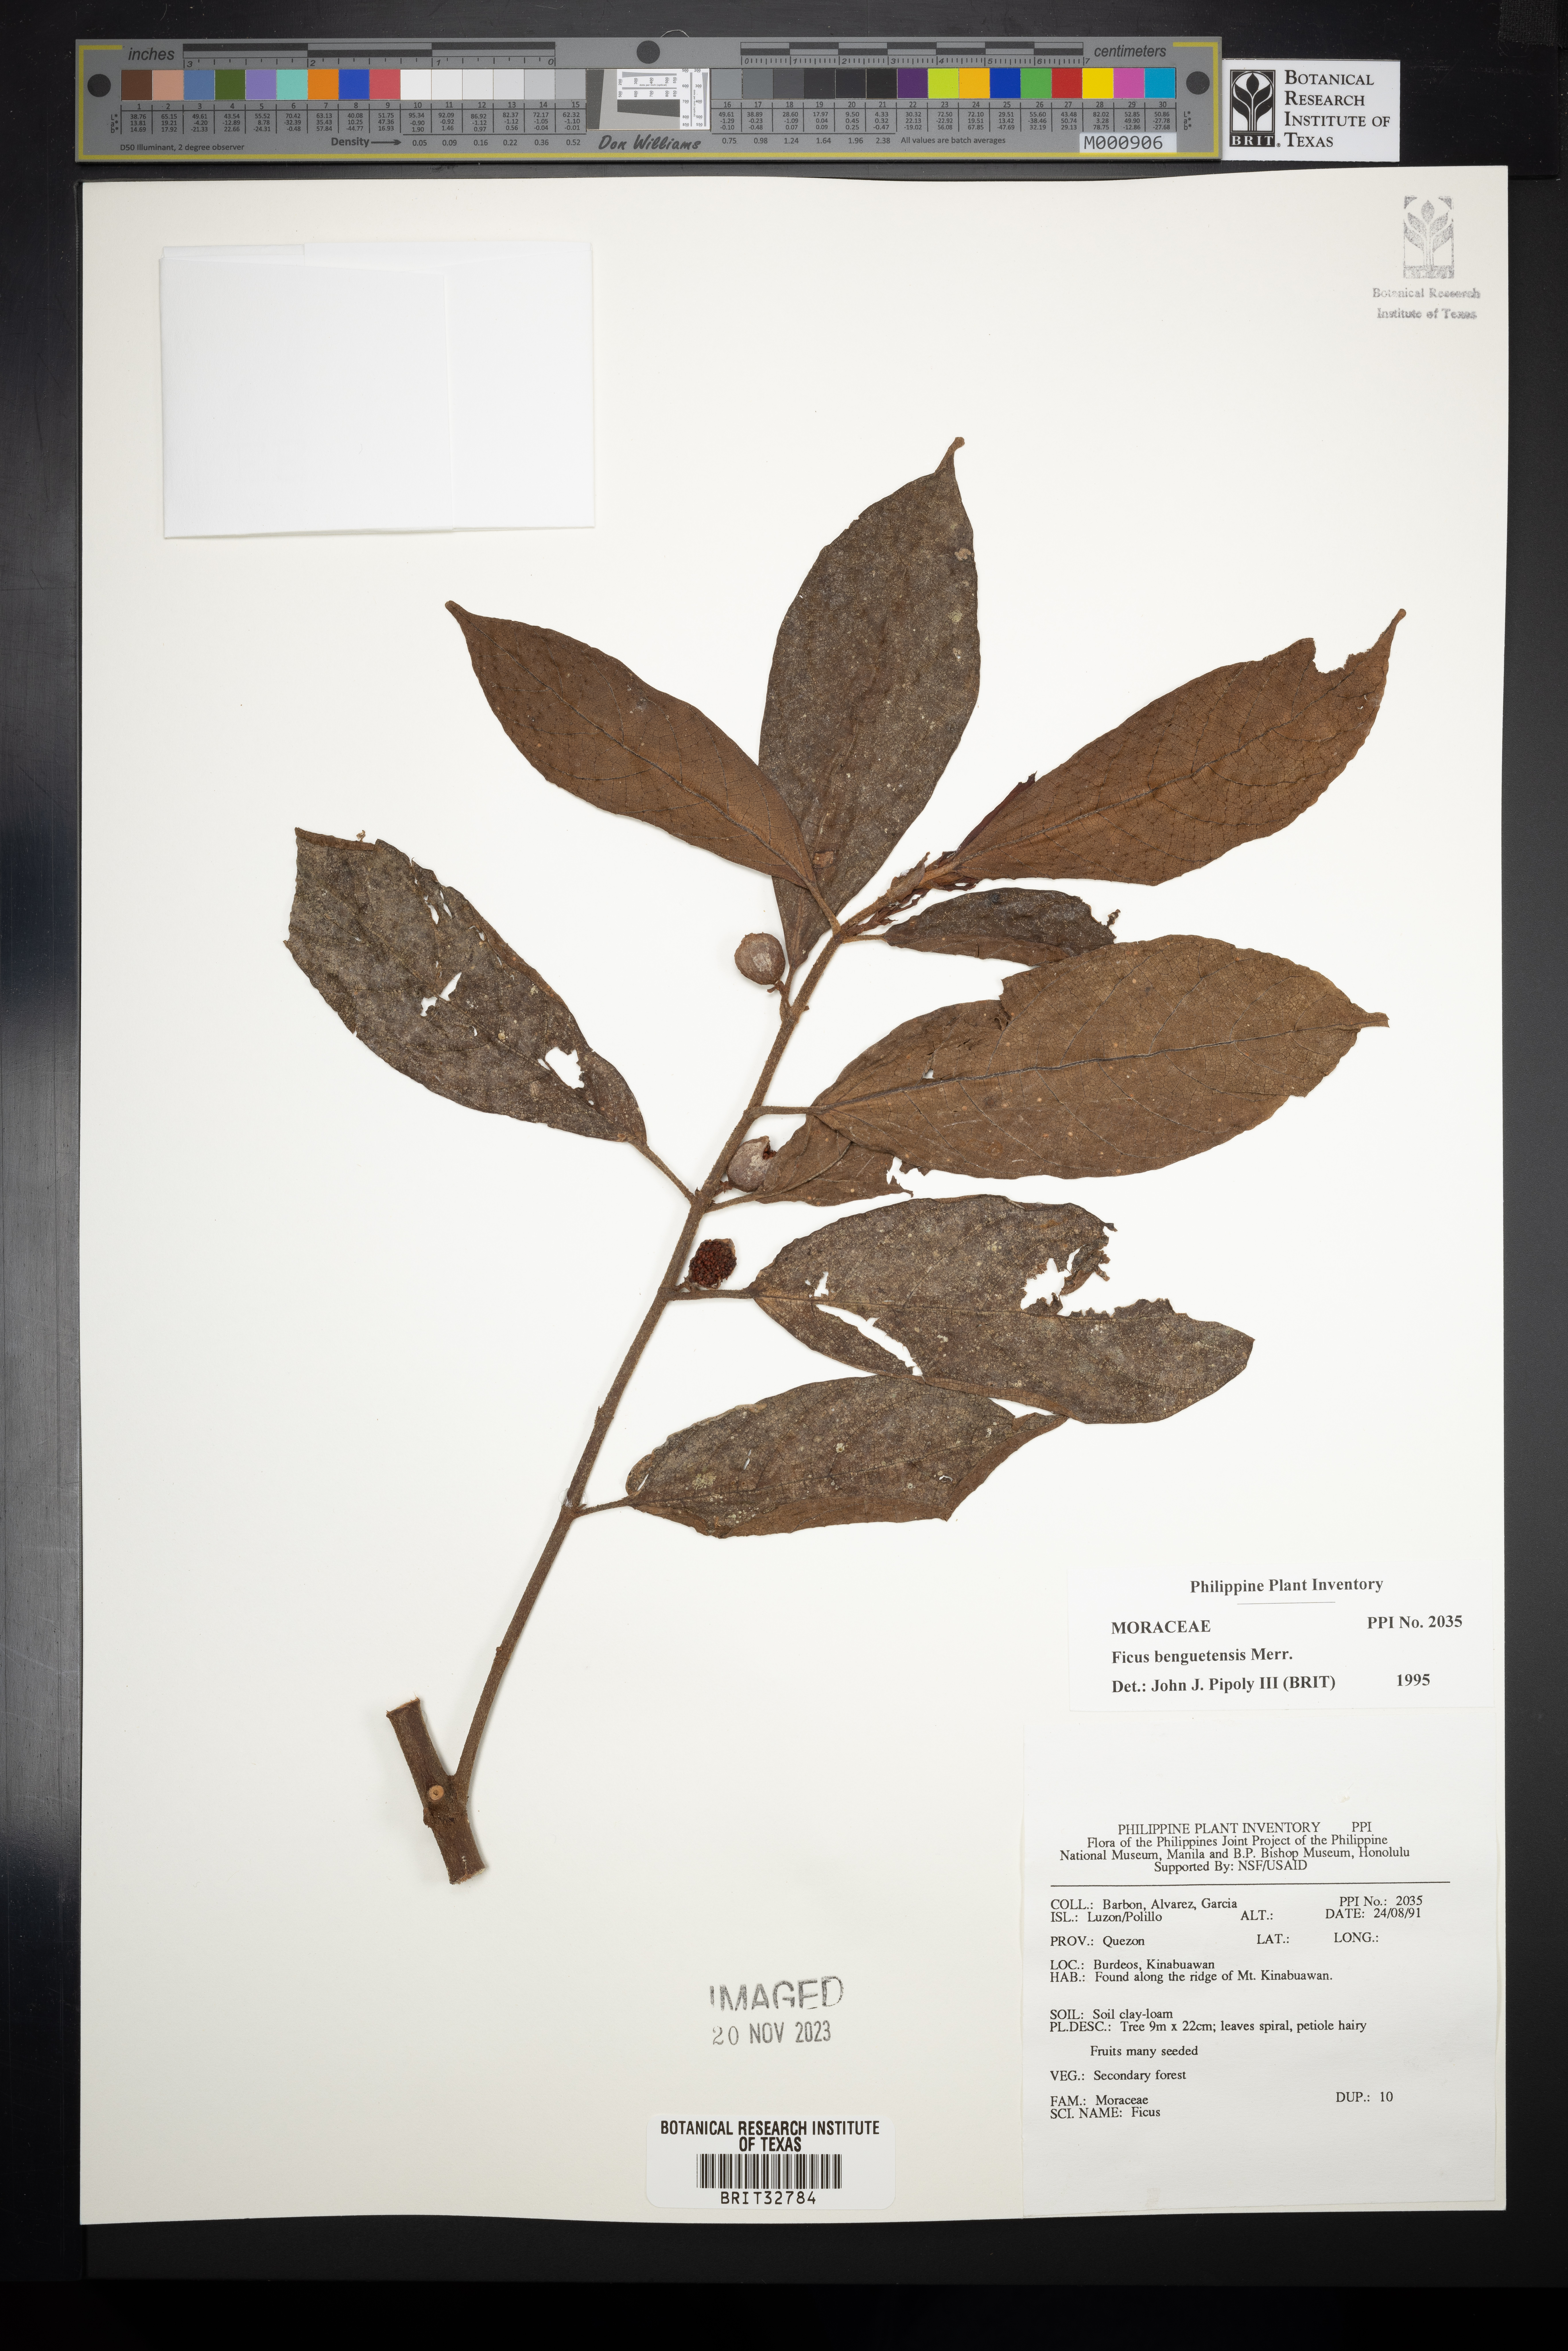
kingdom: Plantae
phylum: Tracheophyta
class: Magnoliopsida
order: Rosales
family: Moraceae
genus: Ficus
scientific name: Ficus benguetensis
